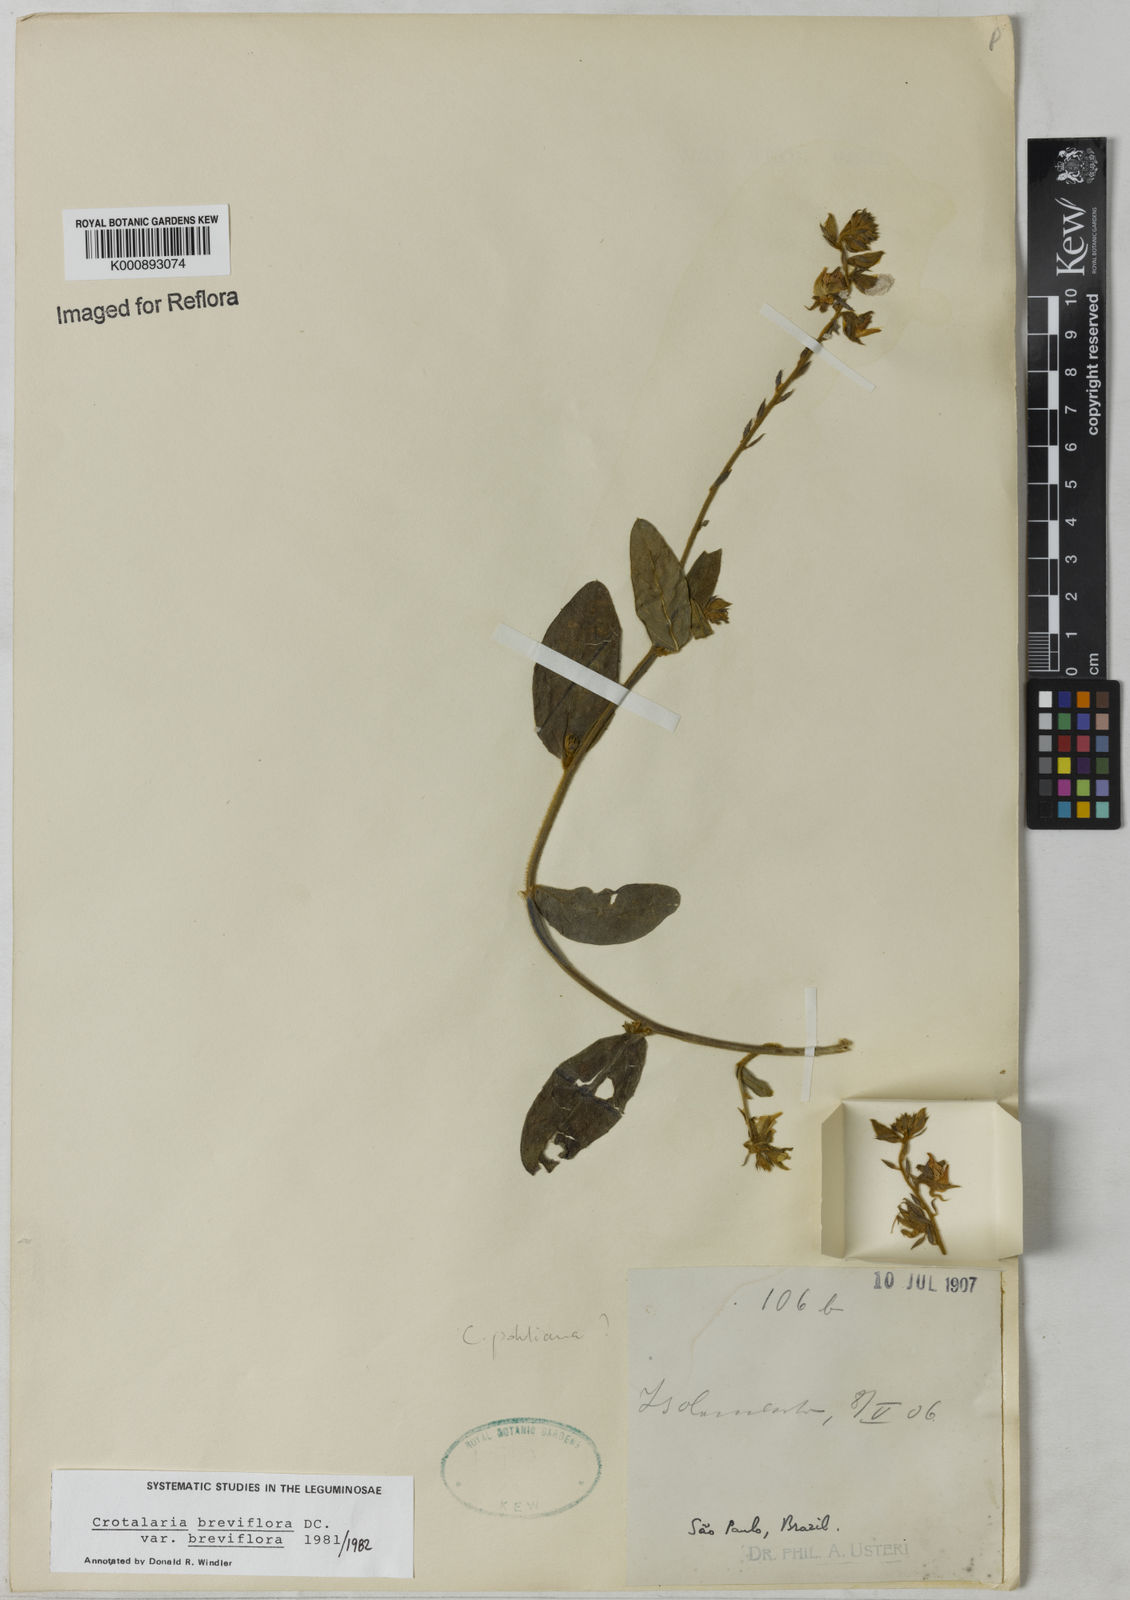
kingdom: Plantae
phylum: Tracheophyta
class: Magnoliopsida
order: Fabales
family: Fabaceae
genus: Crotalaria
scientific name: Crotalaria breviflora
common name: Short-flower crotalaria
